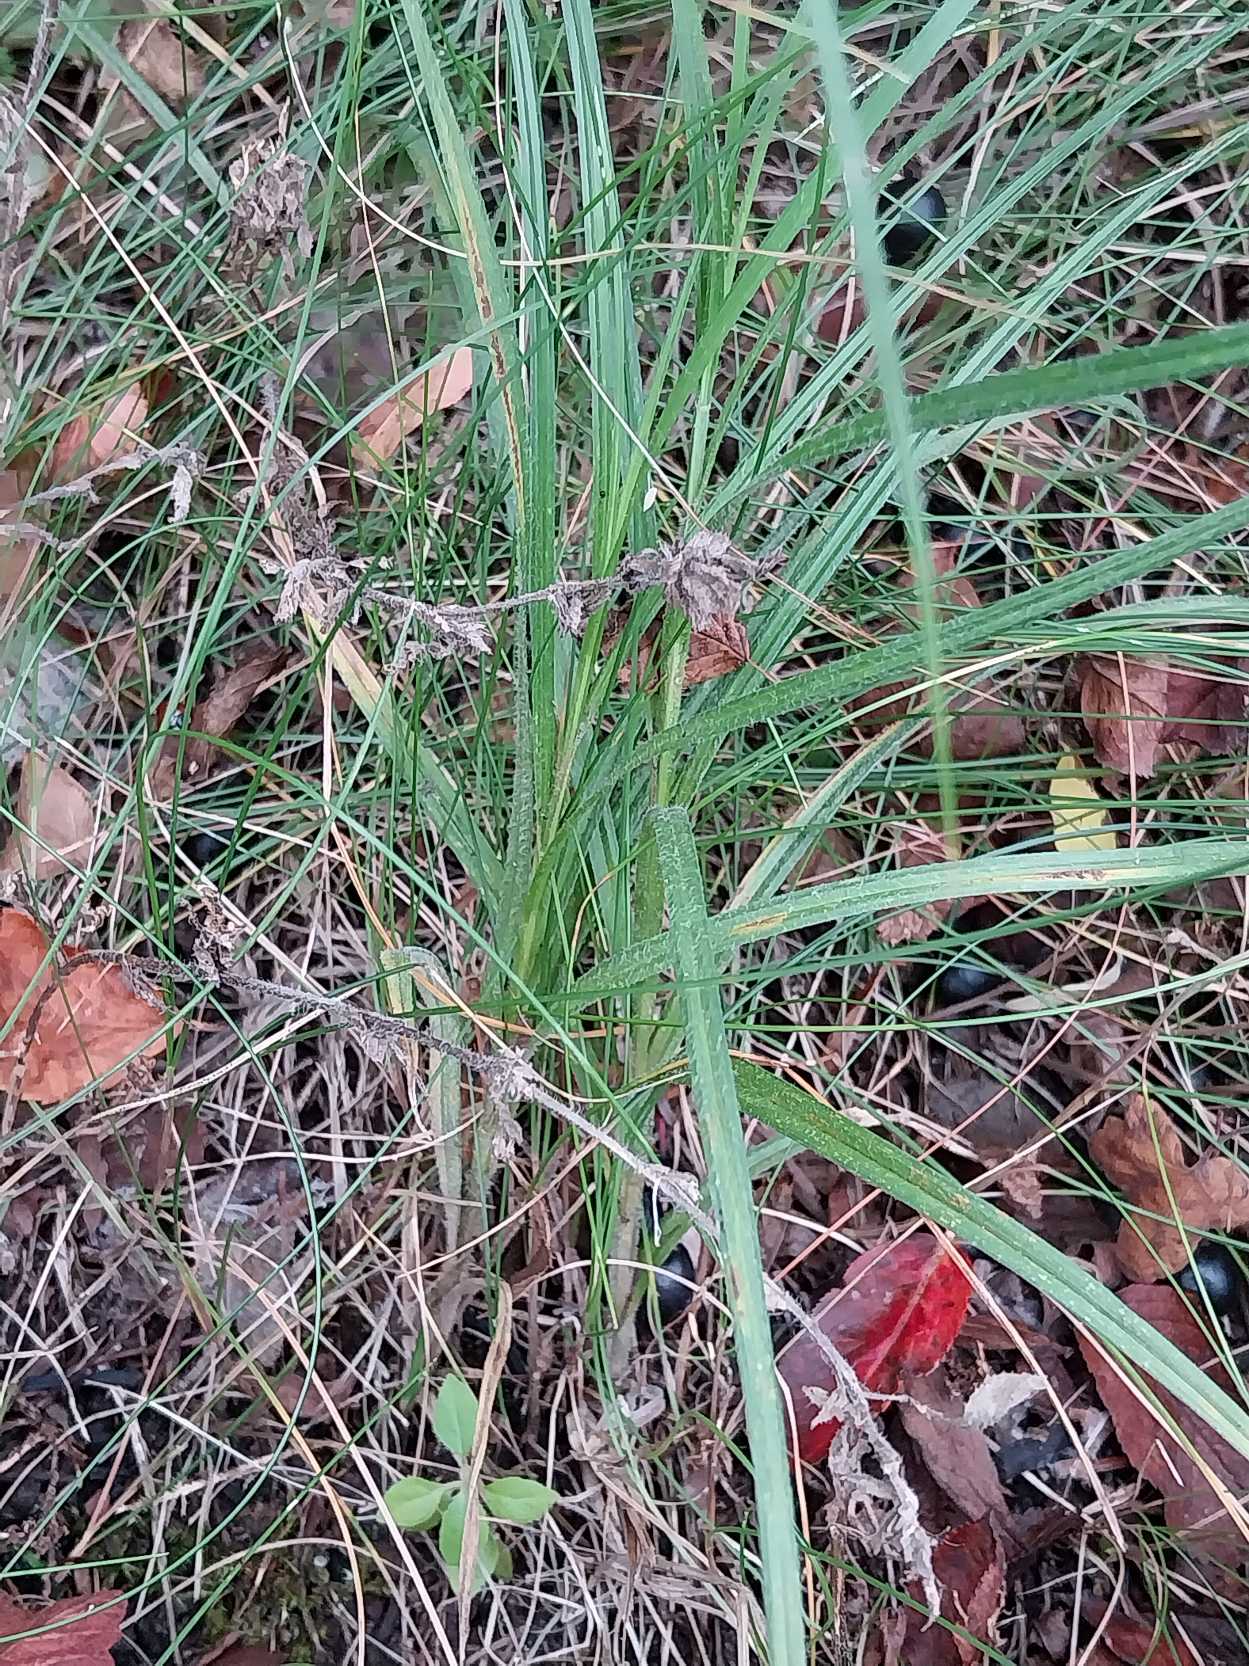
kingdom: Plantae
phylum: Tracheophyta
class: Liliopsida
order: Poales
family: Cyperaceae
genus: Carex
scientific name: Carex hirta
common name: Håret star
